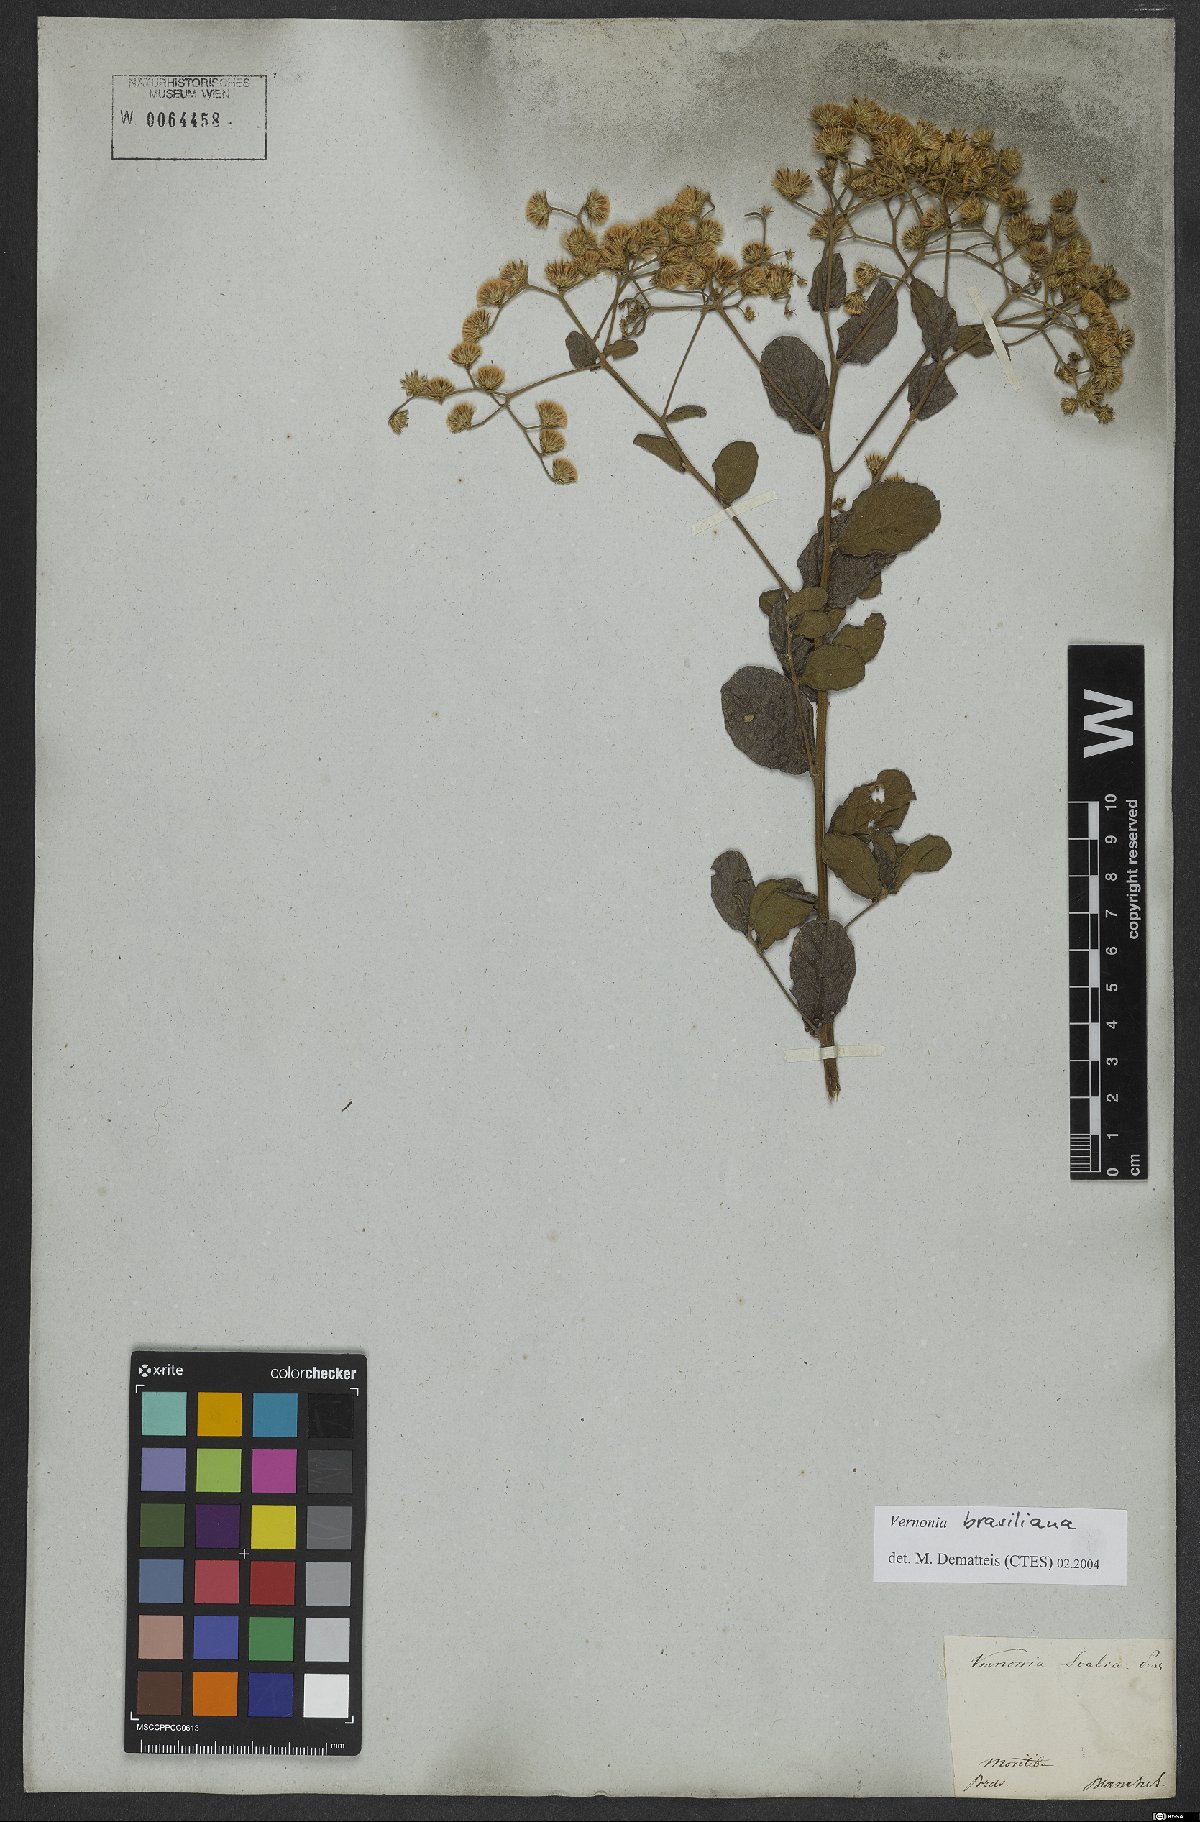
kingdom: Plantae
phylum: Tracheophyta
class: Magnoliopsida
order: Asterales
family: Asteraceae
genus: Vernonanthura
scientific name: Vernonanthura brasiliana
